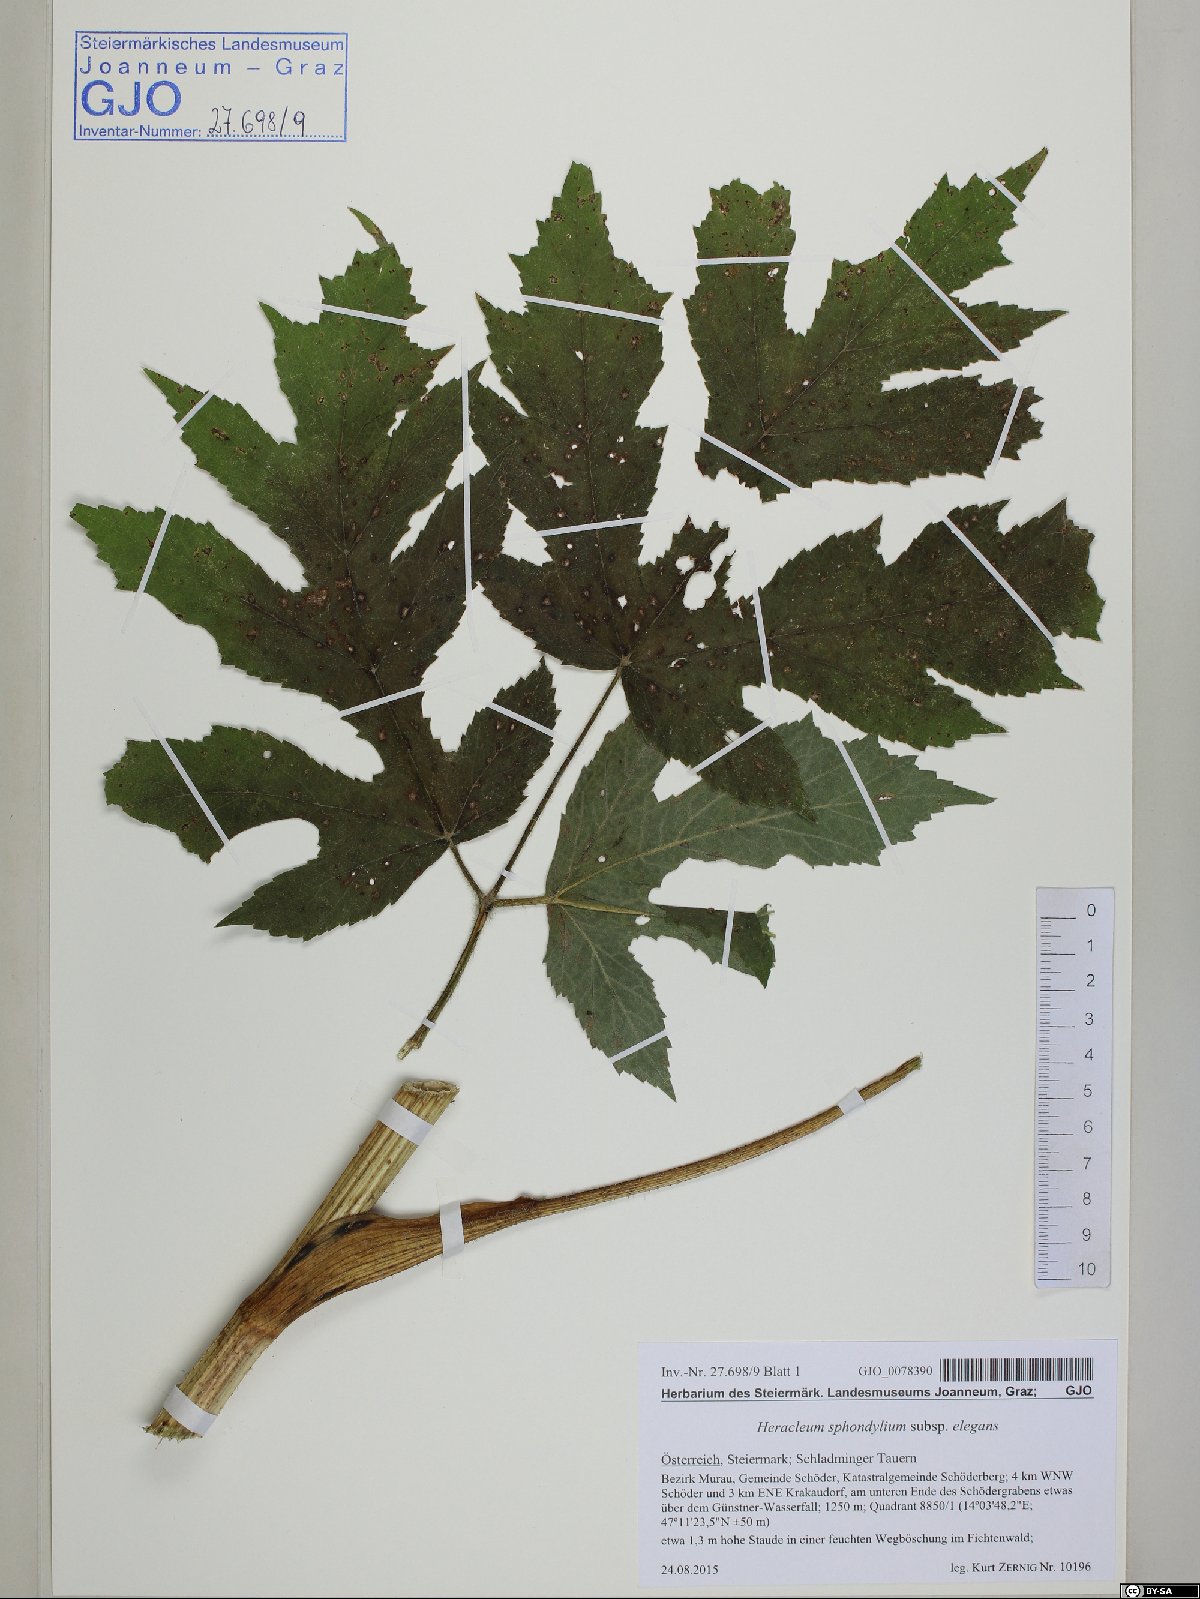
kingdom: Plantae
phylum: Tracheophyta
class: Magnoliopsida
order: Apiales
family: Apiaceae
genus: Heracleum
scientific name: Heracleum sphondylium
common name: Hogweed
